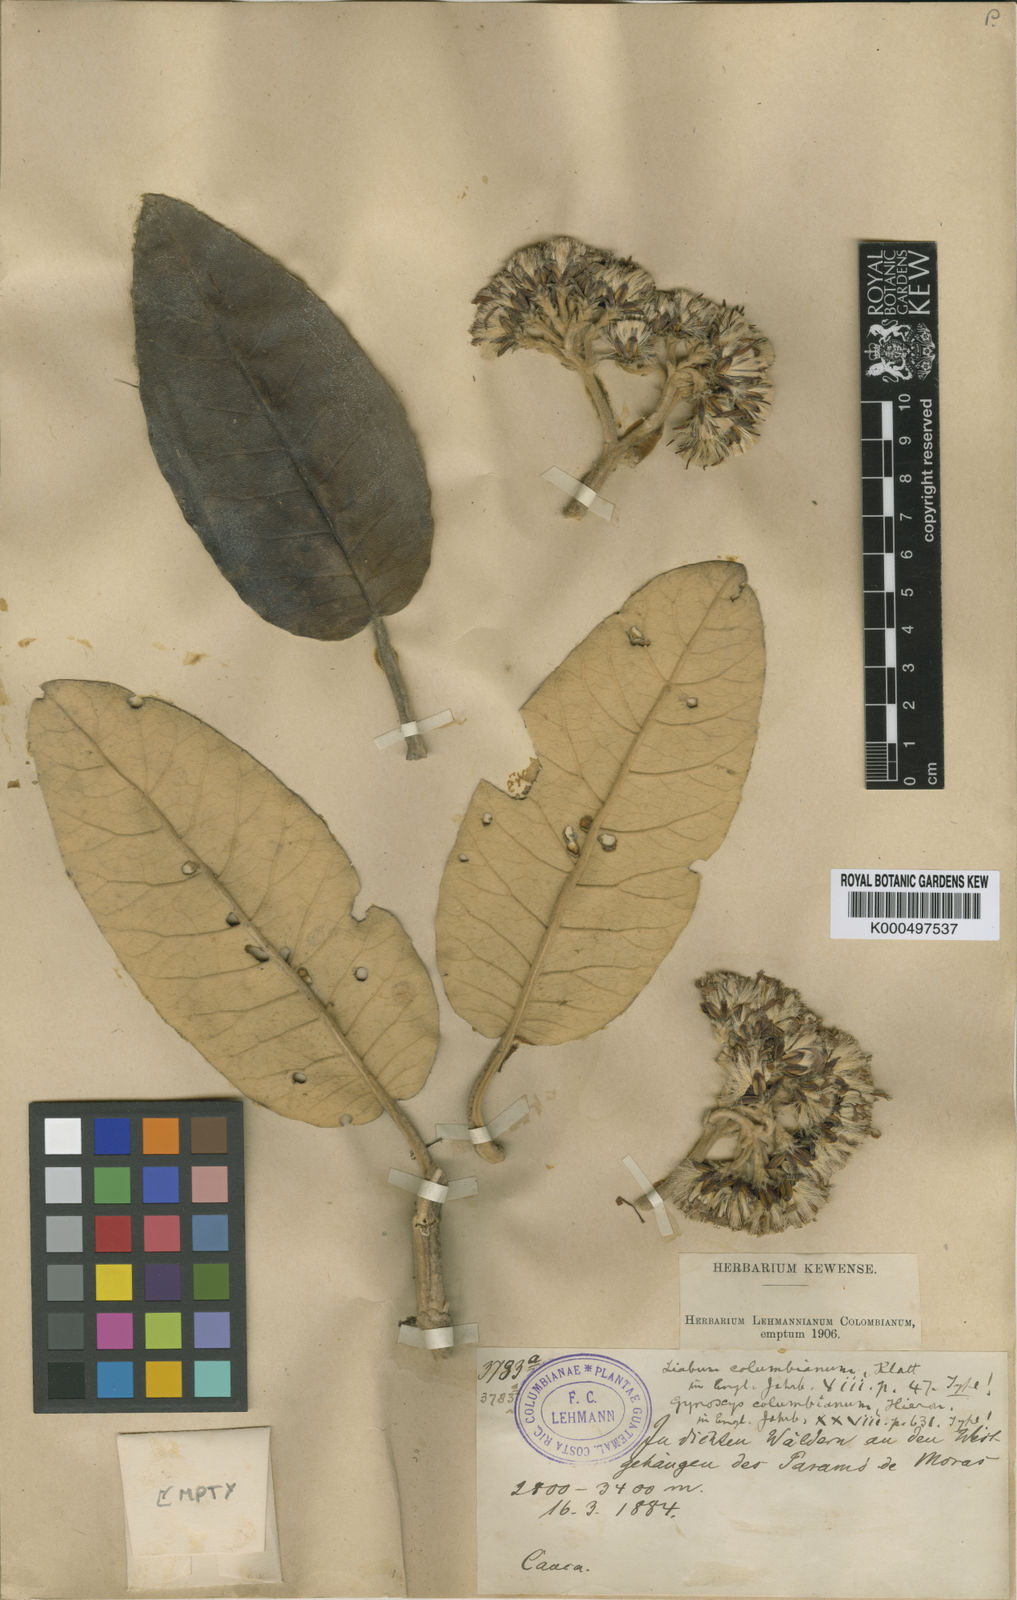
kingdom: Plantae
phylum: Tracheophyta
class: Magnoliopsida
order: Asterales
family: Asteraceae
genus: Gynoxys
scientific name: Gynoxys columbiana
